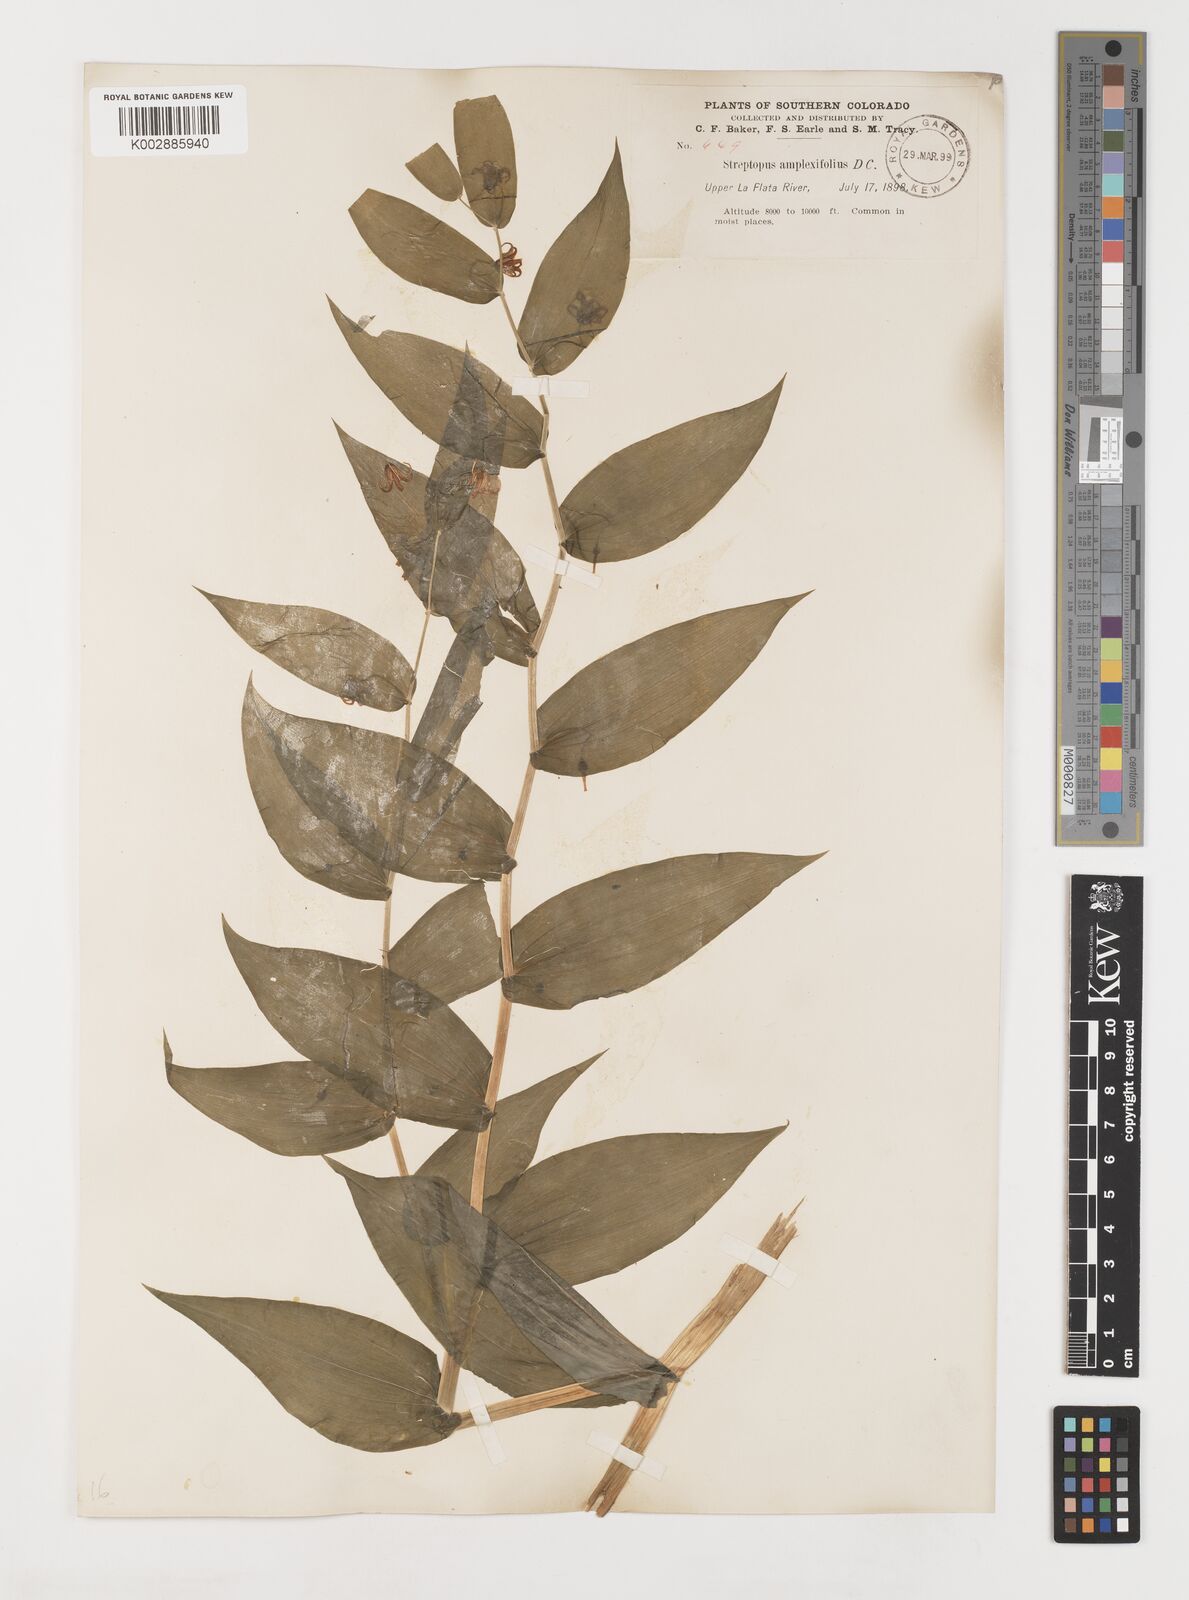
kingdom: Plantae
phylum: Tracheophyta
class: Liliopsida
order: Liliales
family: Liliaceae
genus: Streptopus
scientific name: Streptopus amplexifolius
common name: Clasp twisted stalk
